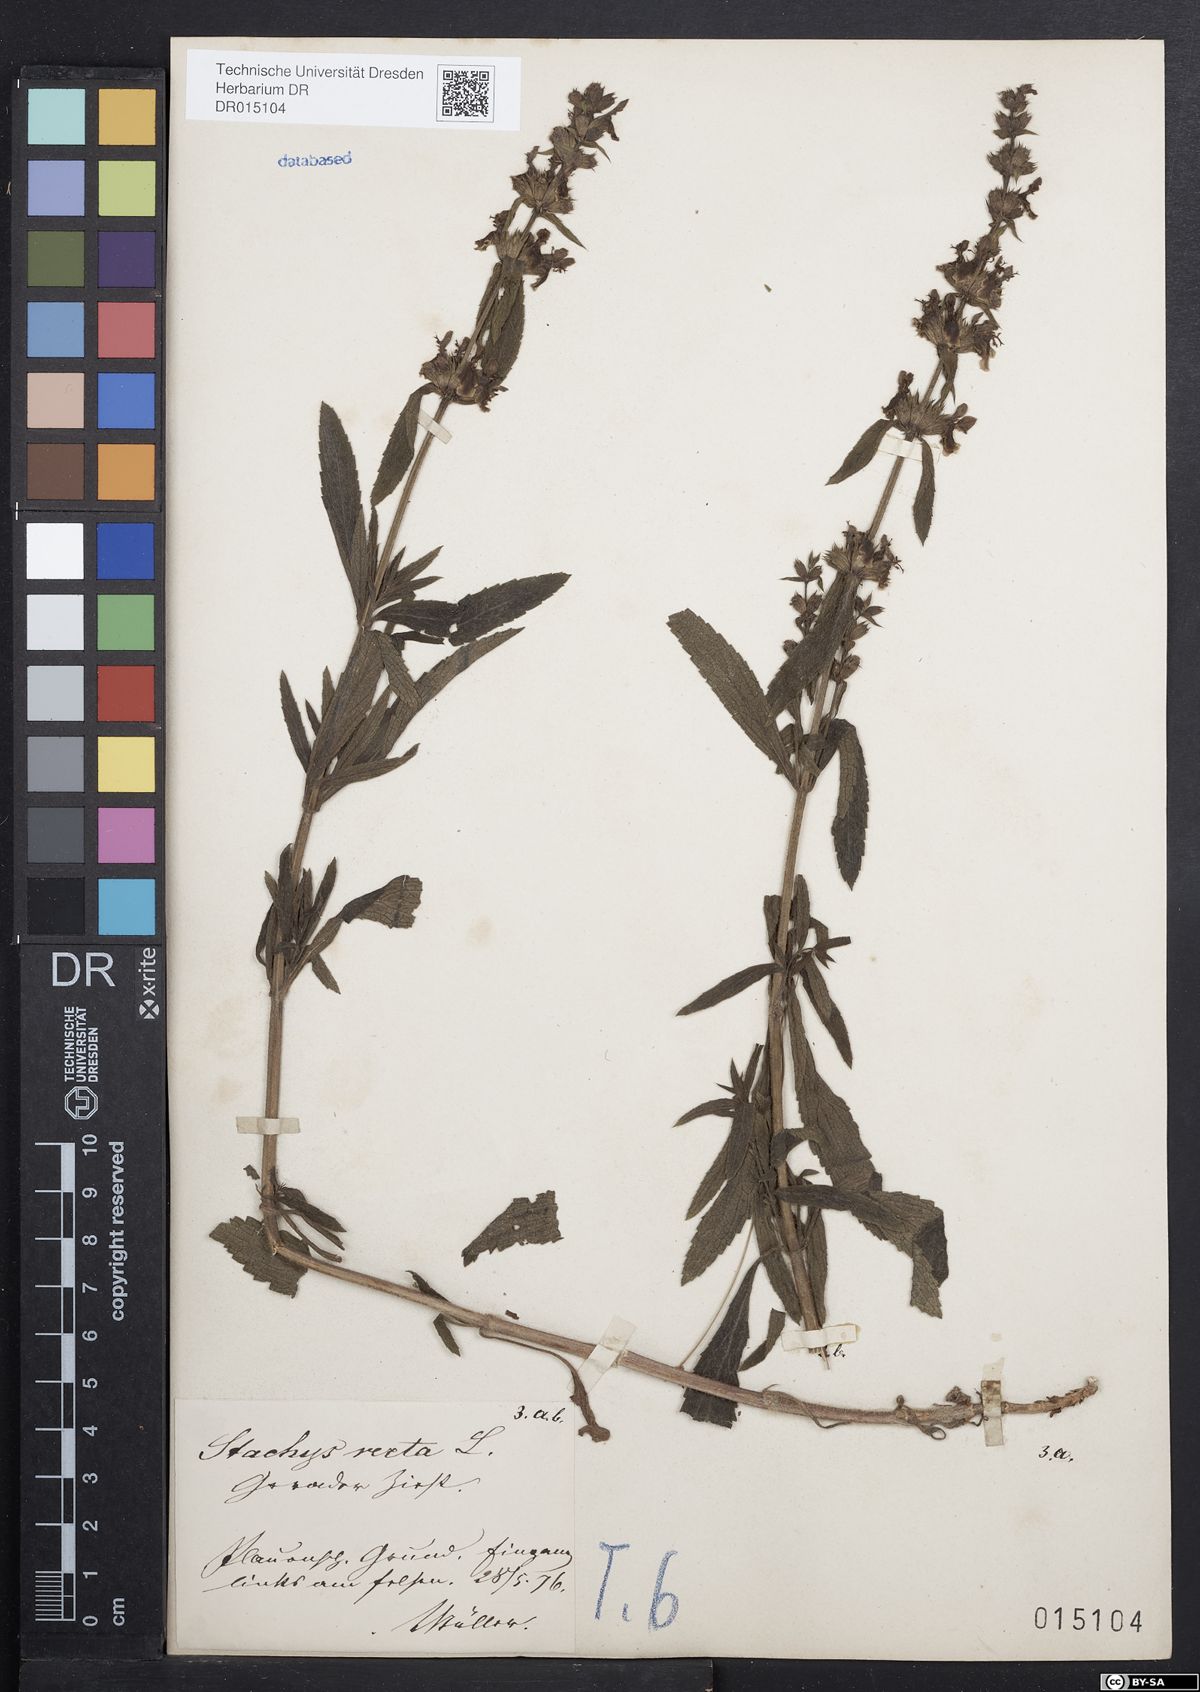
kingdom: Plantae
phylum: Tracheophyta
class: Magnoliopsida
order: Lamiales
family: Lamiaceae
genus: Stachys
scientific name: Stachys recta
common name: Perennial yellow-woundwort
